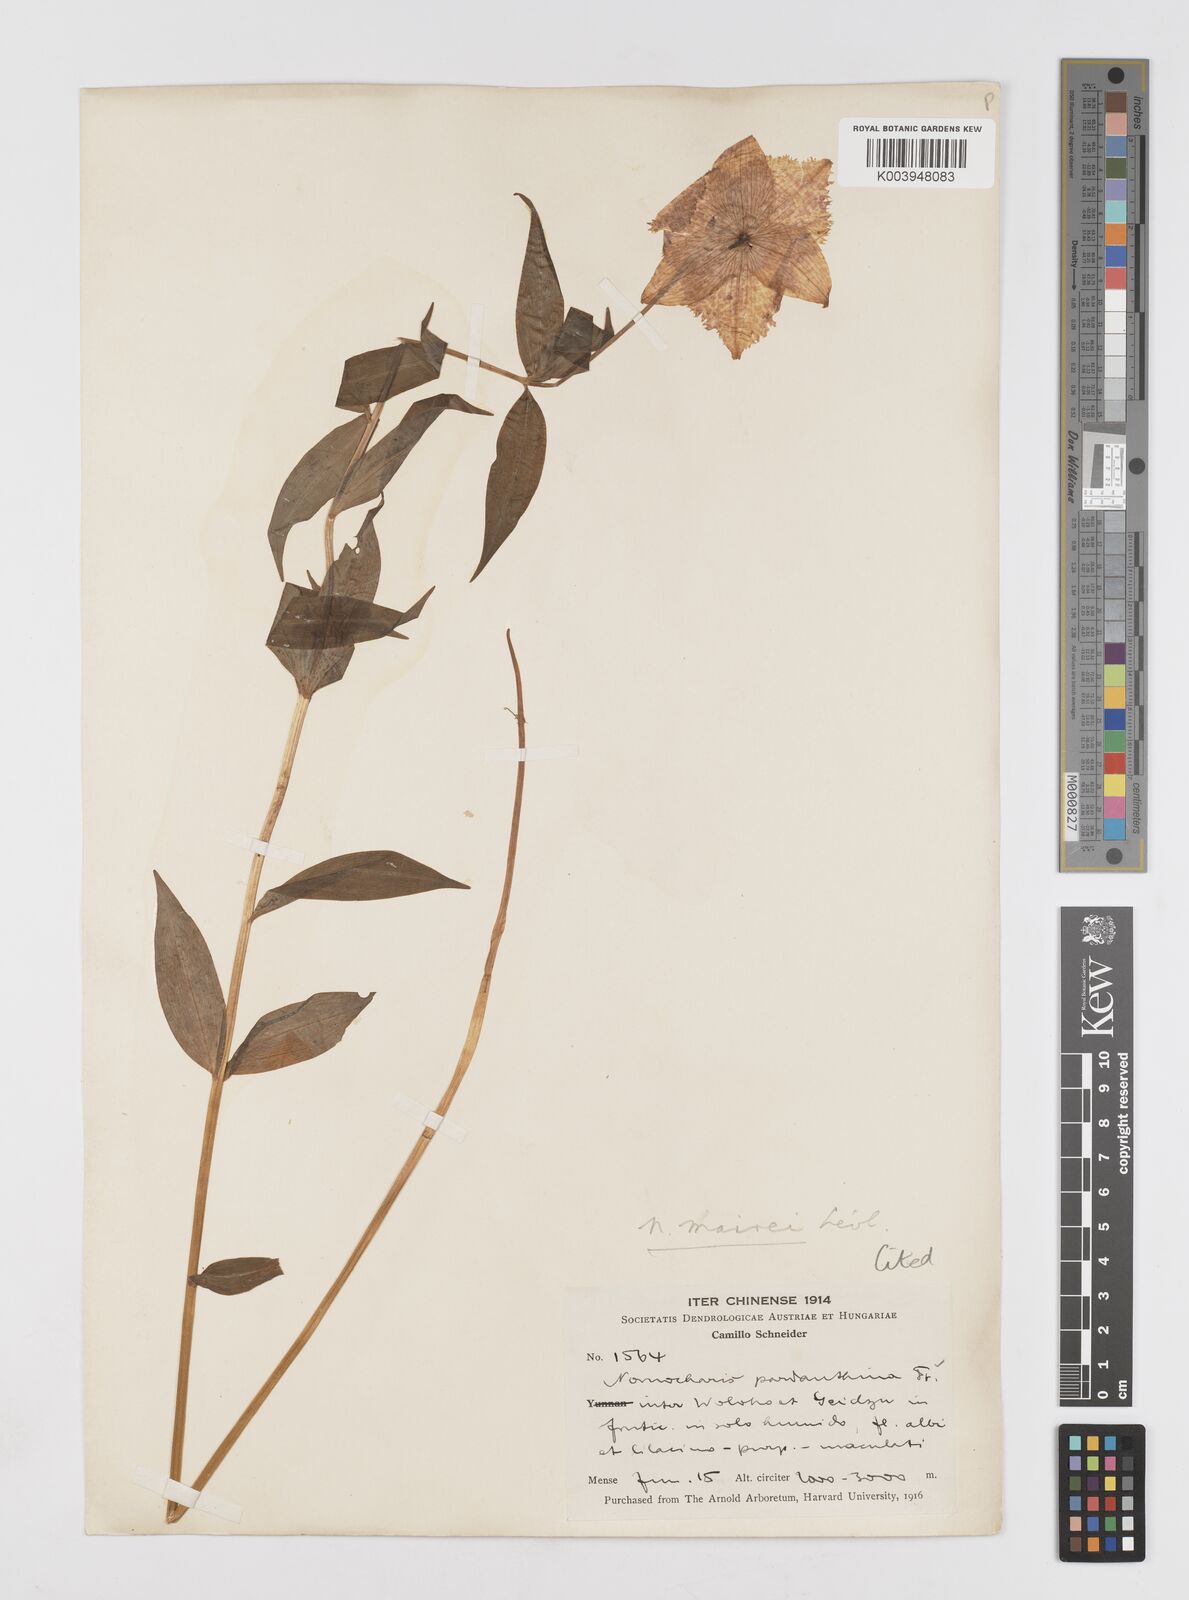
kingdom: Plantae
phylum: Tracheophyta
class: Liliopsida
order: Liliales
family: Liliaceae
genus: Lilium
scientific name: Lilium pardanthinum
